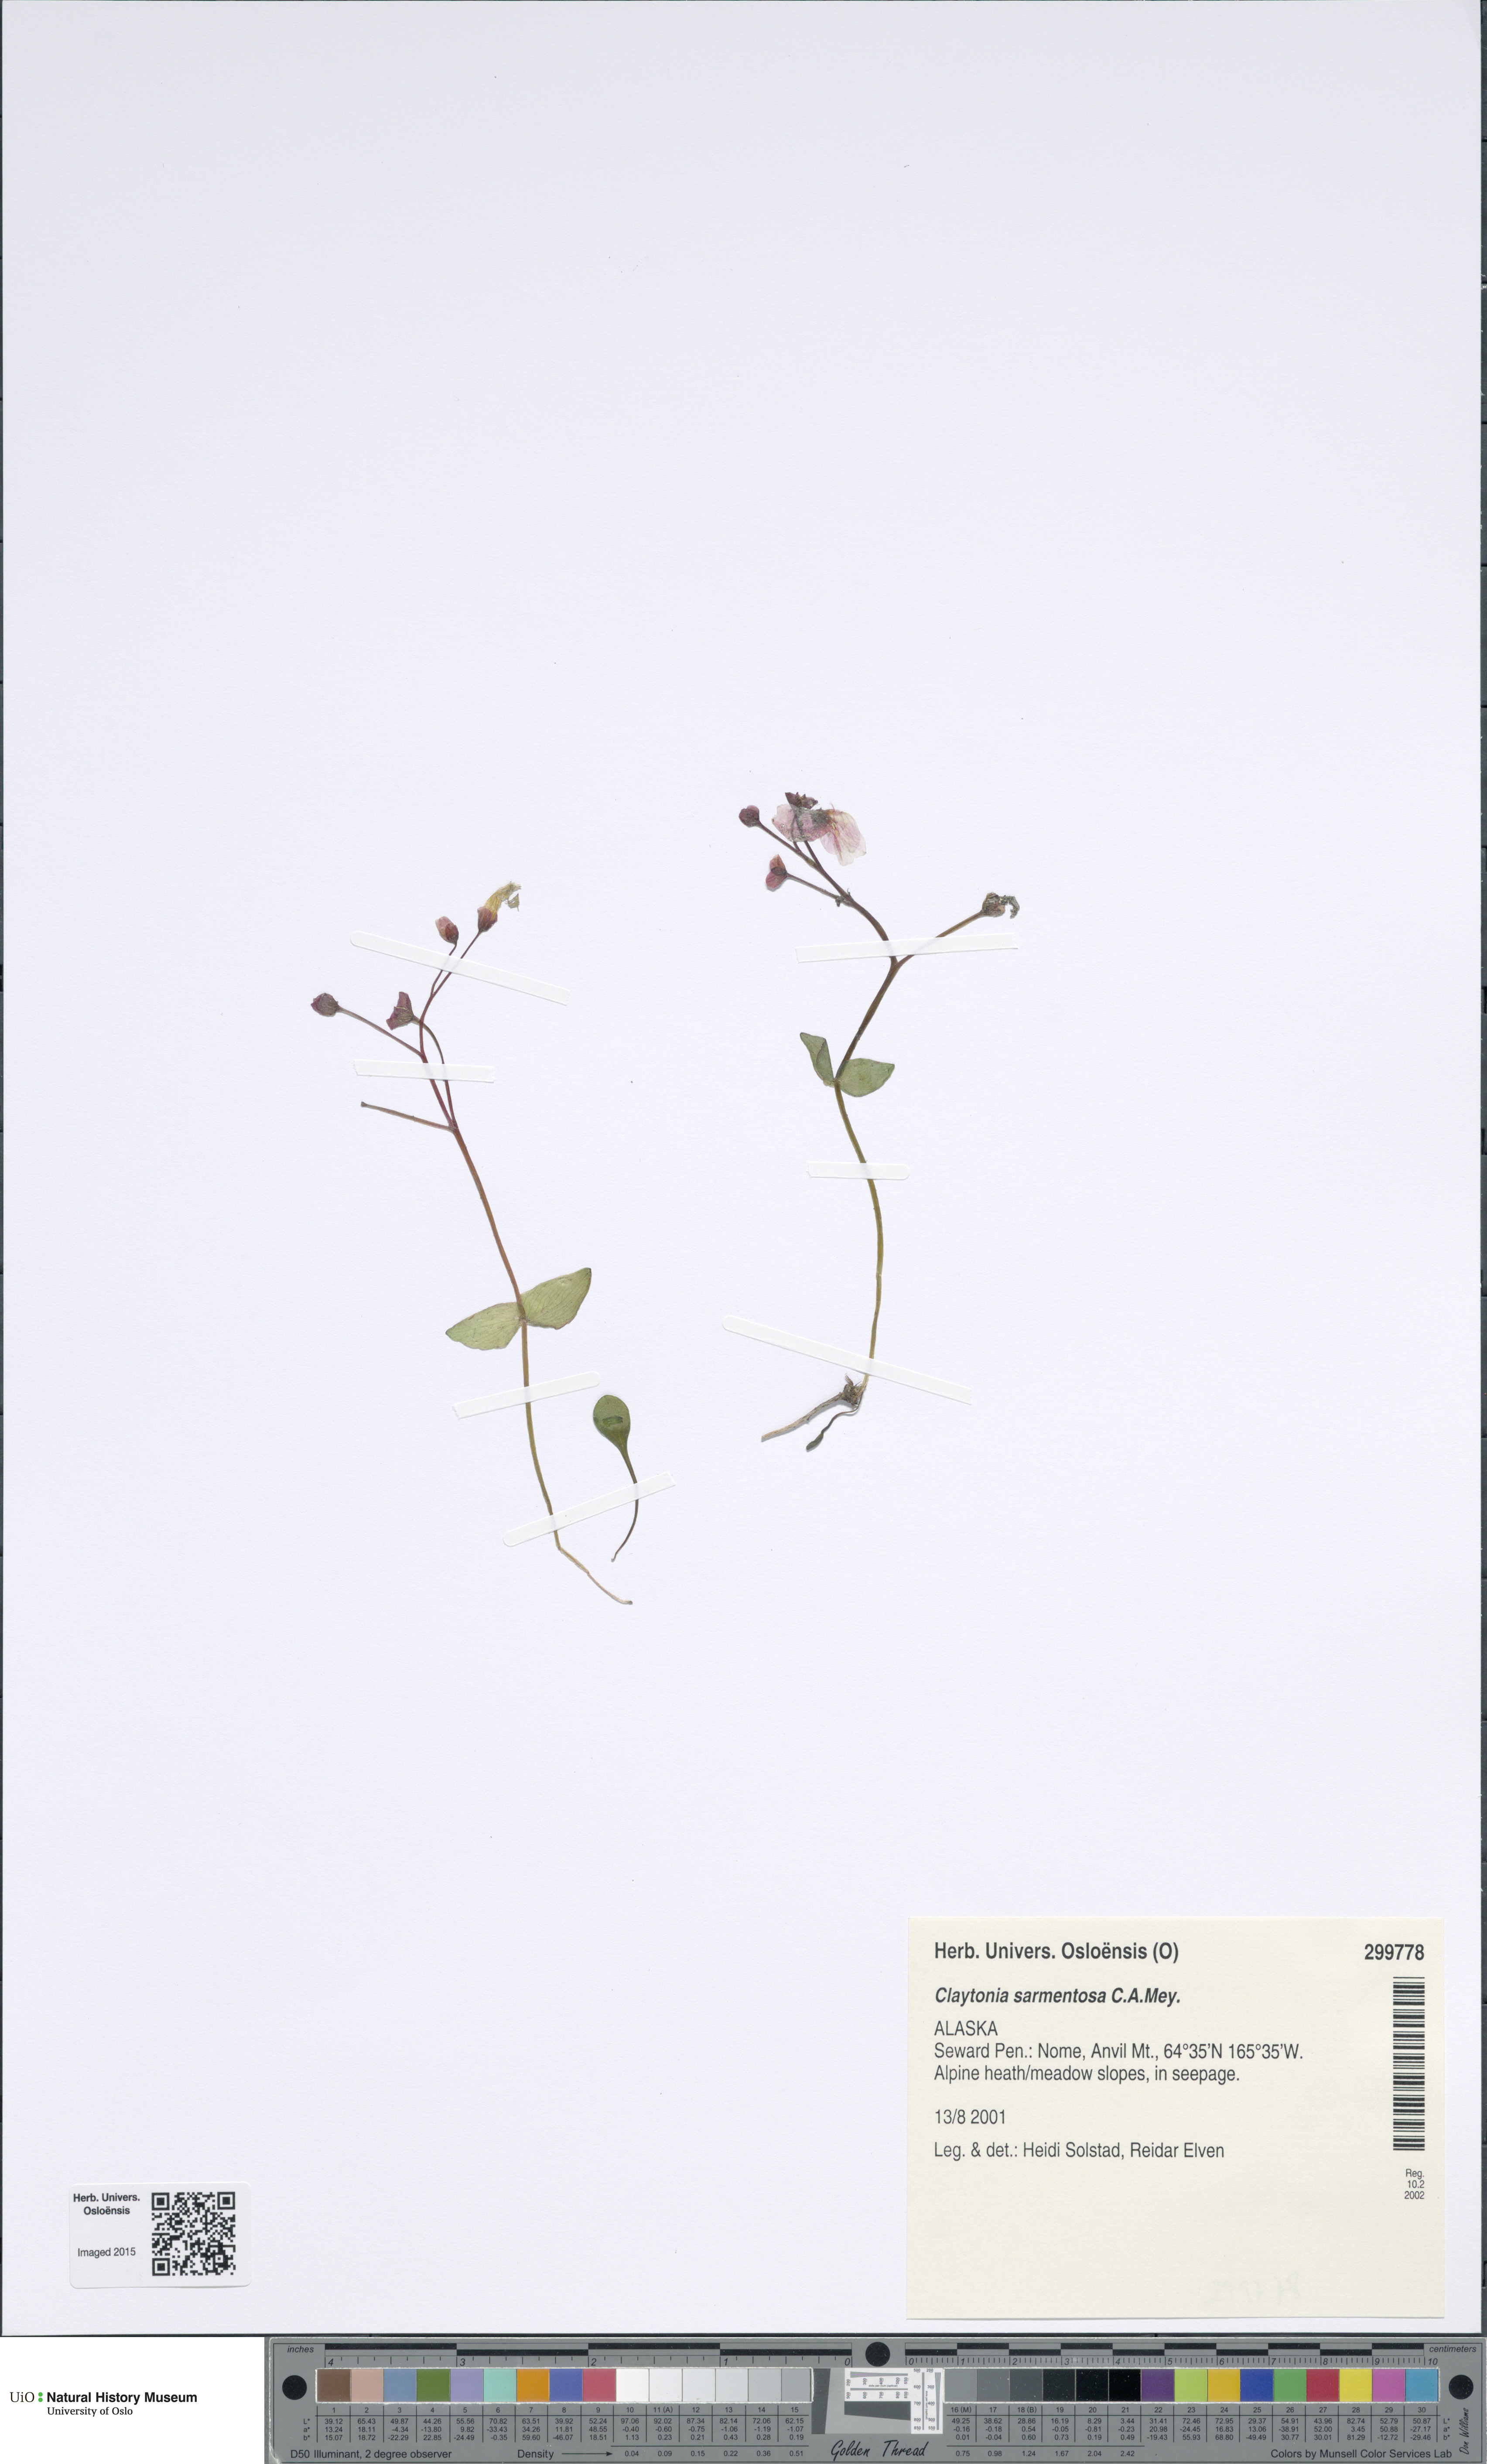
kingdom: Plantae
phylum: Tracheophyta
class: Magnoliopsida
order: Caryophyllales
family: Montiaceae
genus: Claytonia
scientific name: Claytonia sarmentosa
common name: Alaska spring beauty
